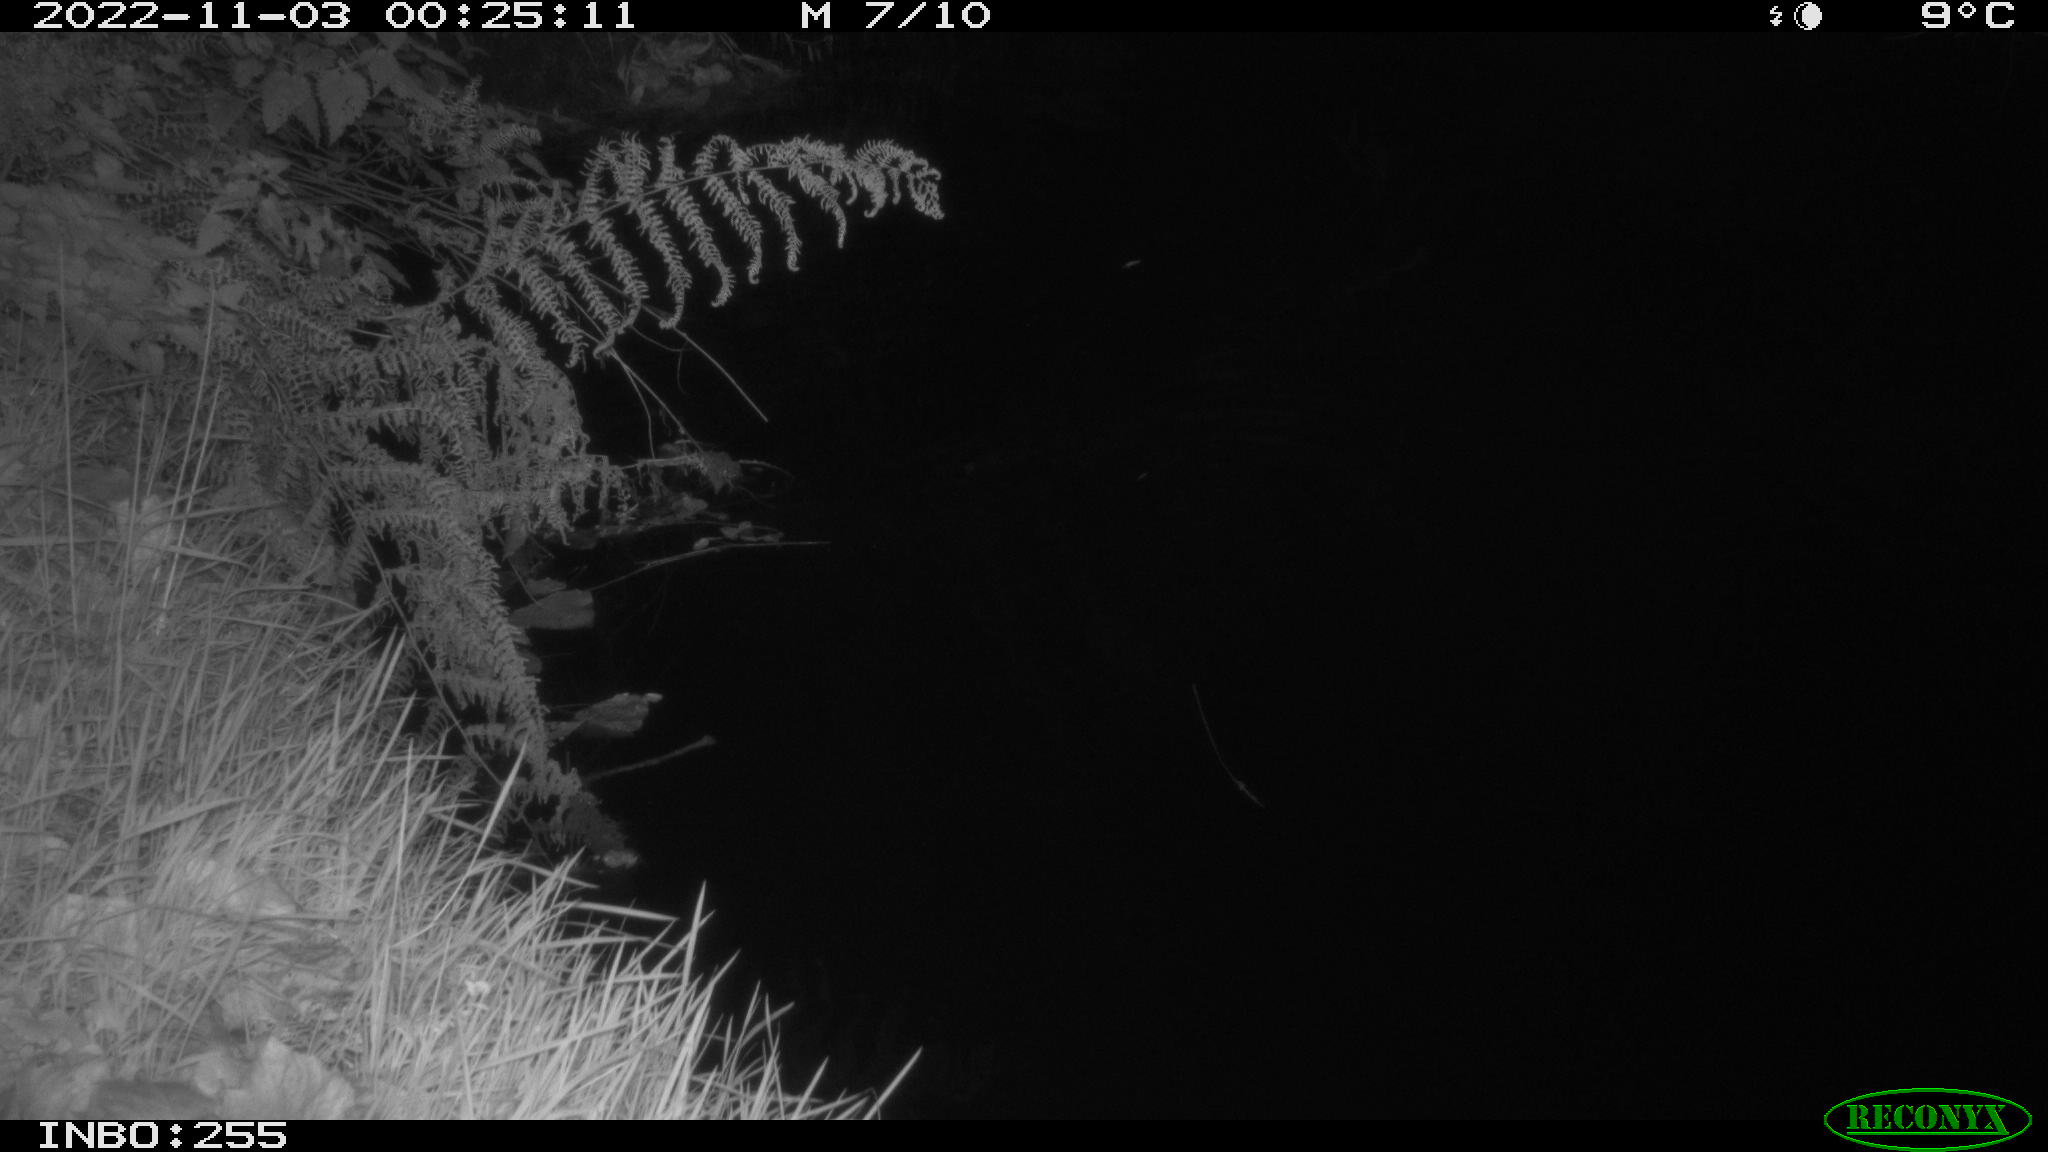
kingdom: Animalia
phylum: Chordata
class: Mammalia
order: Rodentia
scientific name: Rodentia
